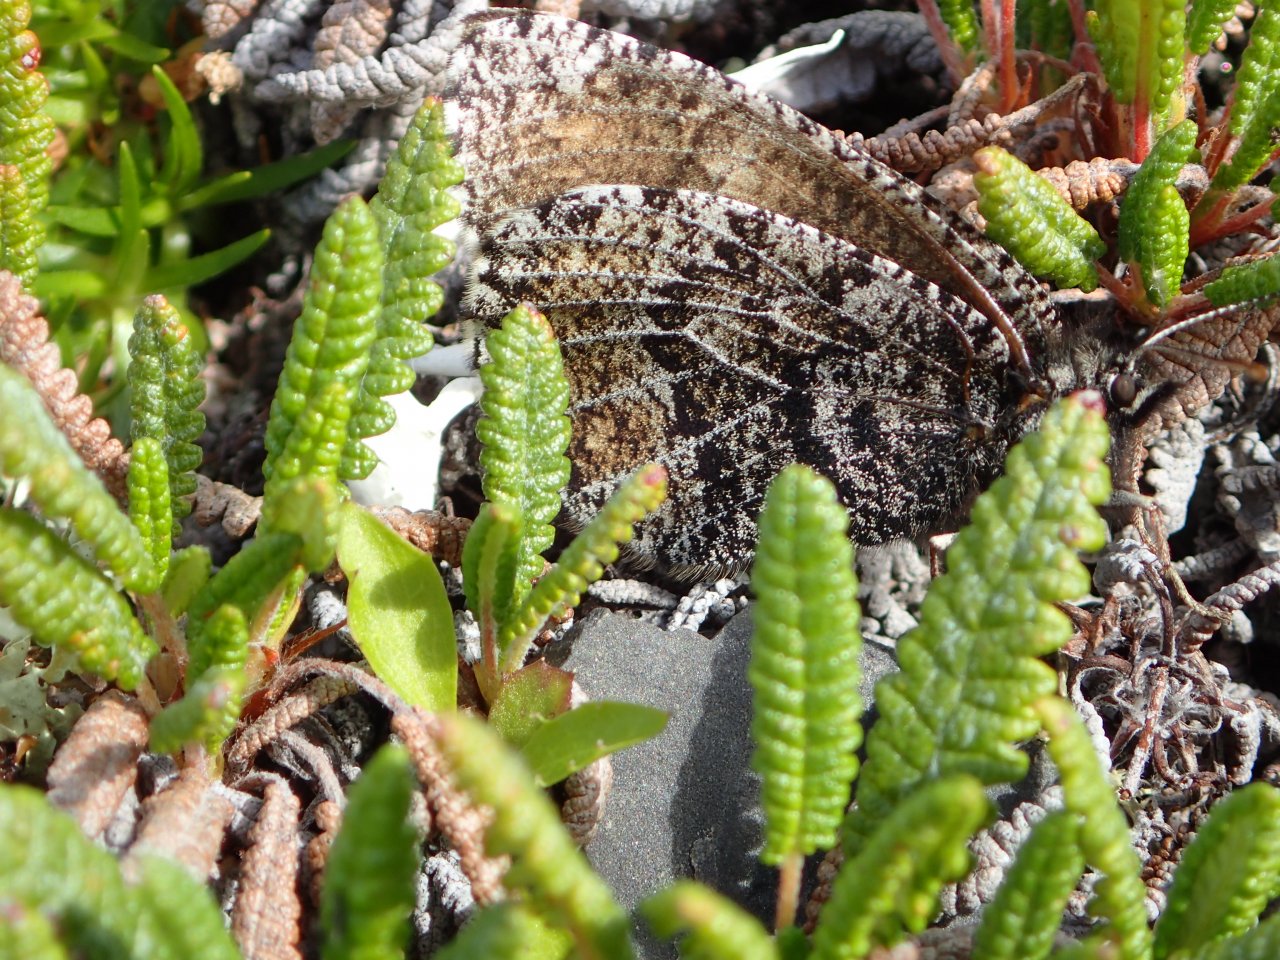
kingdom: Animalia
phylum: Arthropoda
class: Insecta
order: Lepidoptera
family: Nymphalidae
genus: Oeneis
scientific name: Oeneis bore
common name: White-veined Arctic
